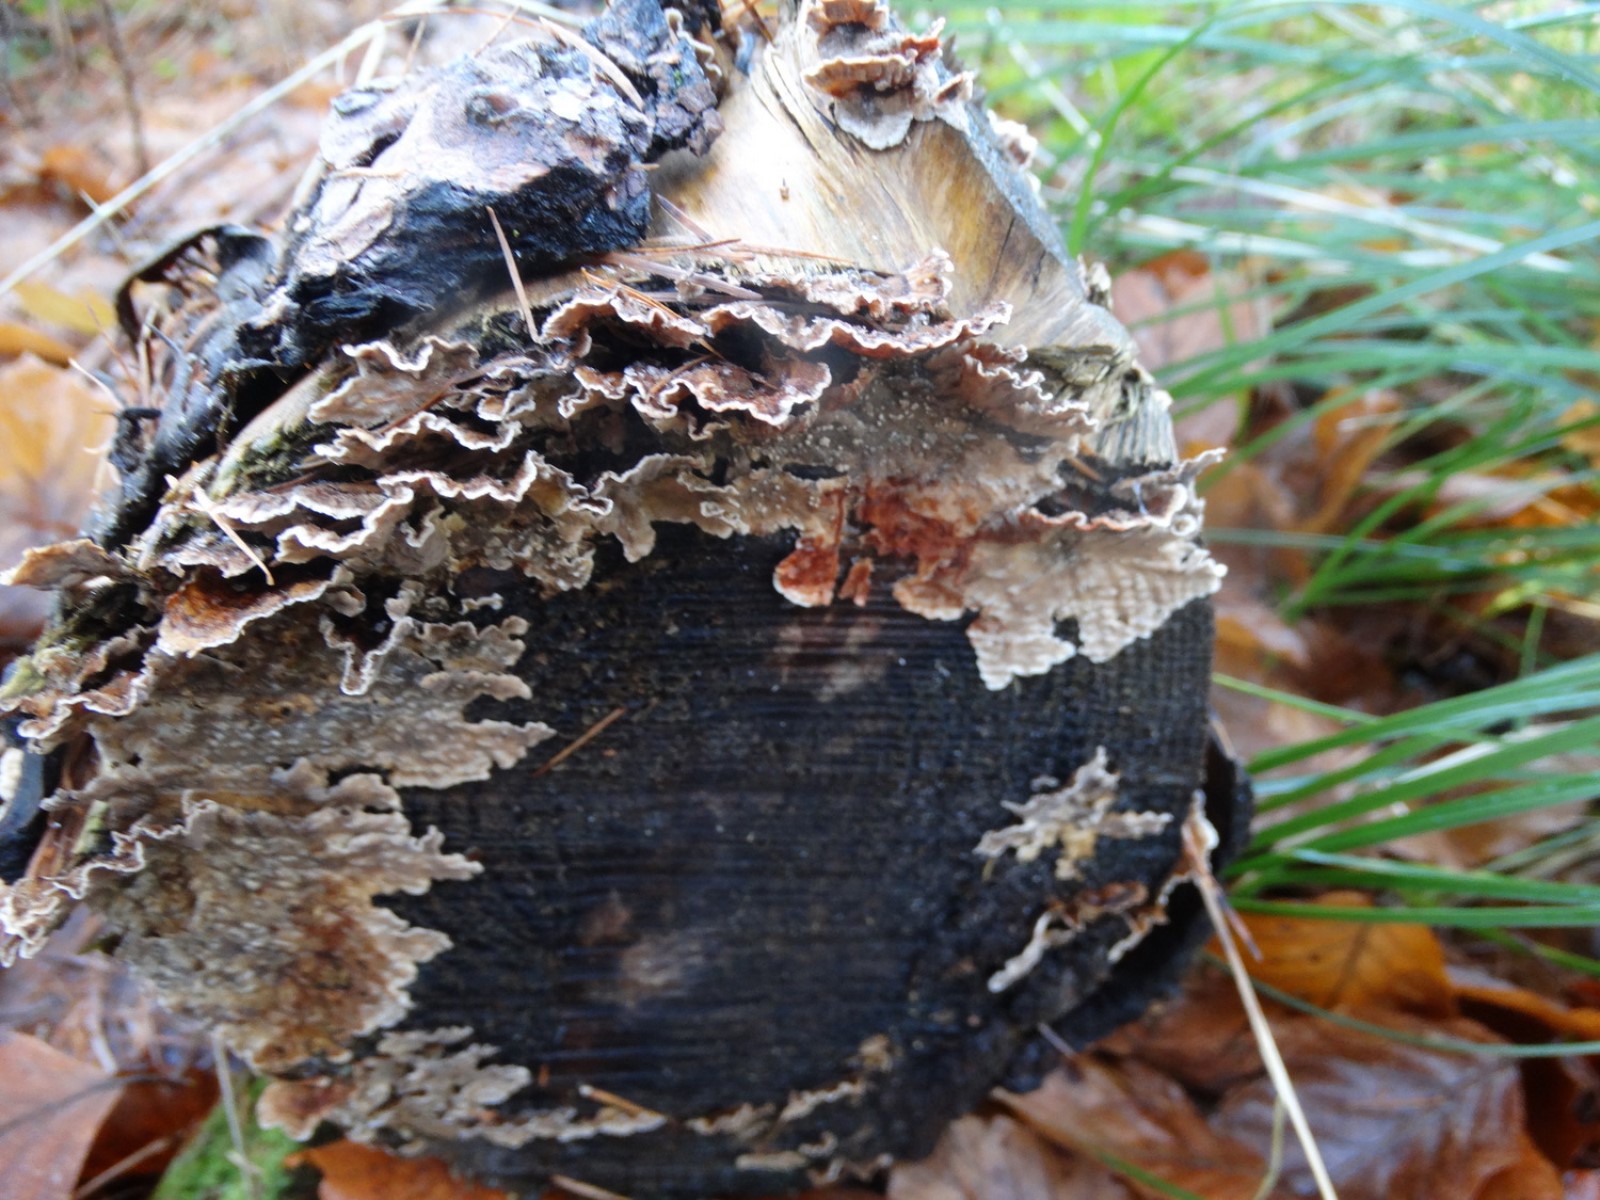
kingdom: Fungi
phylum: Basidiomycota
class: Agaricomycetes
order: Russulales
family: Stereaceae
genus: Stereum
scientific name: Stereum sanguinolentum
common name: blødende lædersvamp
